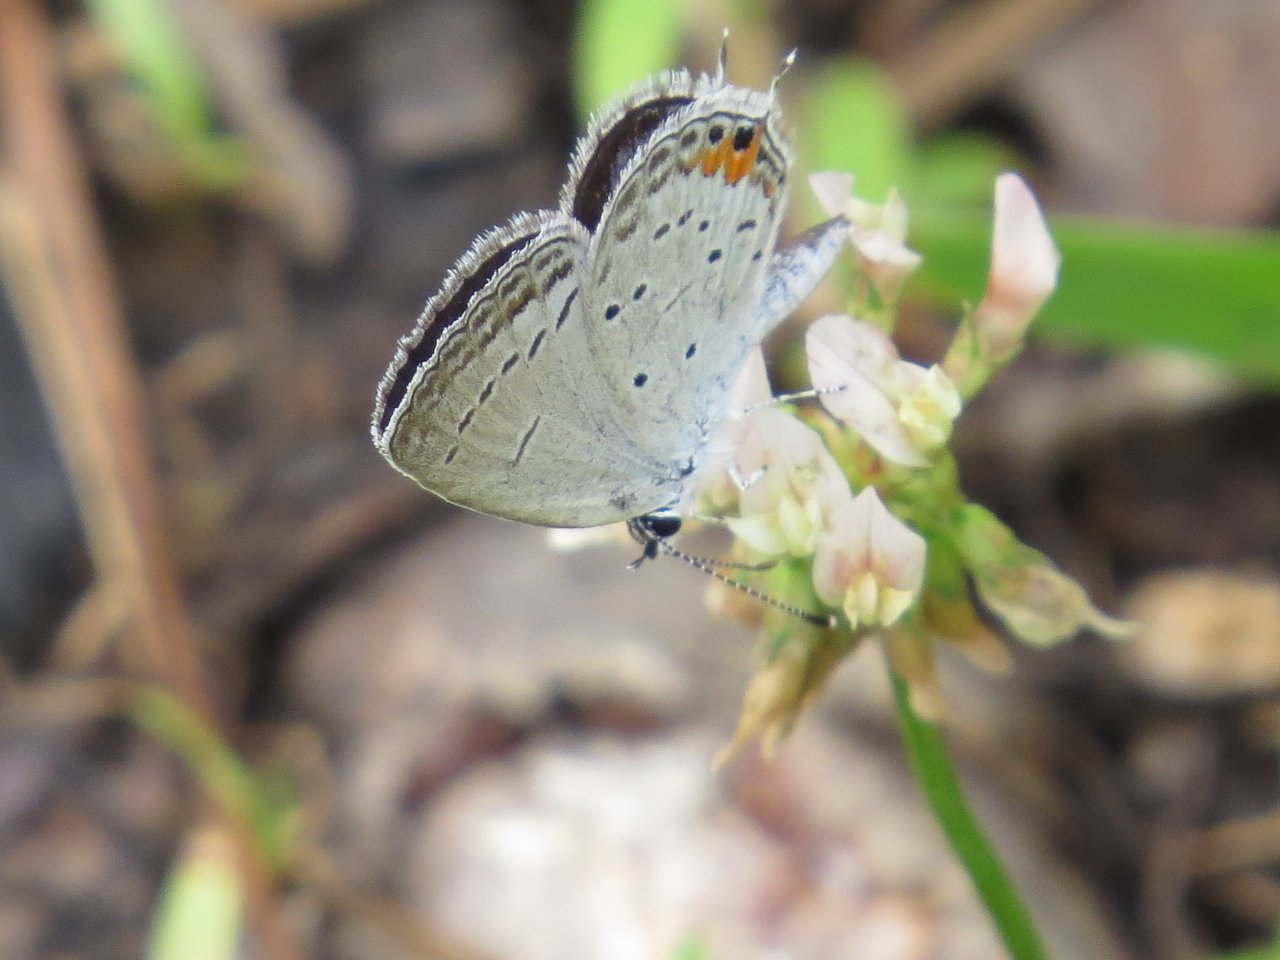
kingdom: Animalia
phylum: Arthropoda
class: Insecta
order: Lepidoptera
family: Lycaenidae
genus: Elkalyce
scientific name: Elkalyce comyntas
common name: Eastern Tailed-Blue
